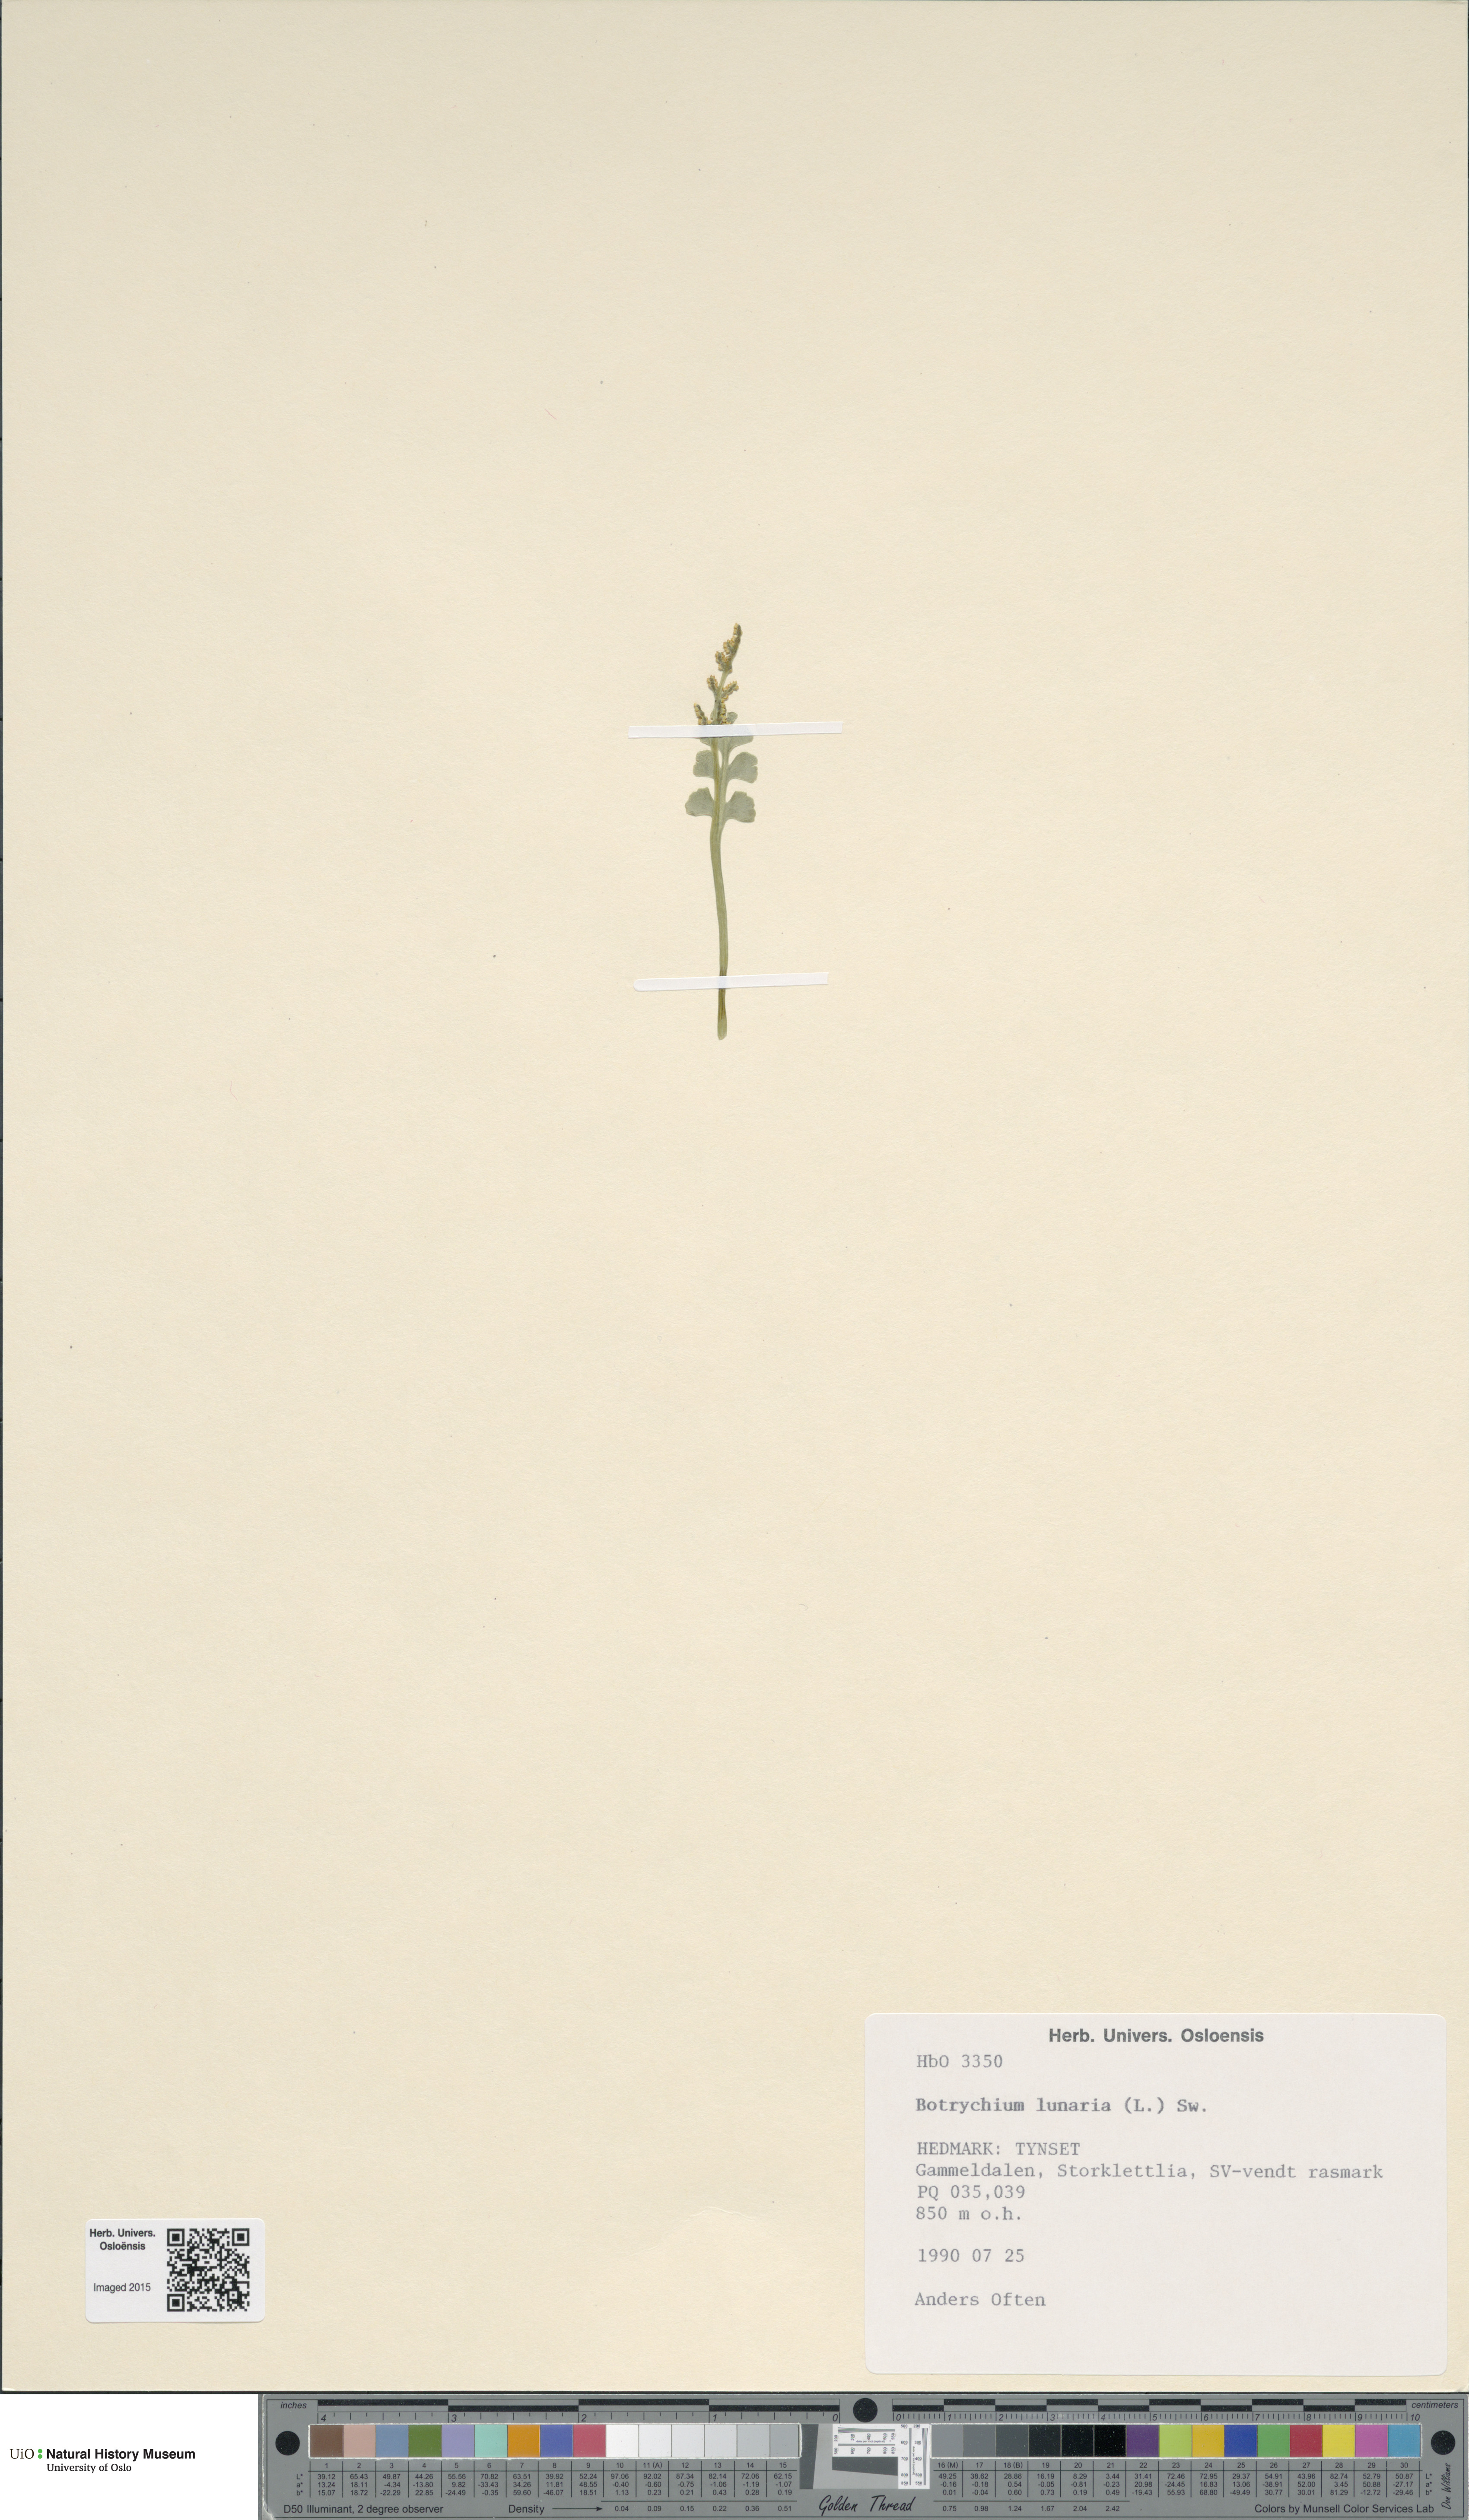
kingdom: Plantae
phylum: Tracheophyta
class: Polypodiopsida
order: Ophioglossales
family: Ophioglossaceae
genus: Botrychium
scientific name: Botrychium lunaria
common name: Moonwort
